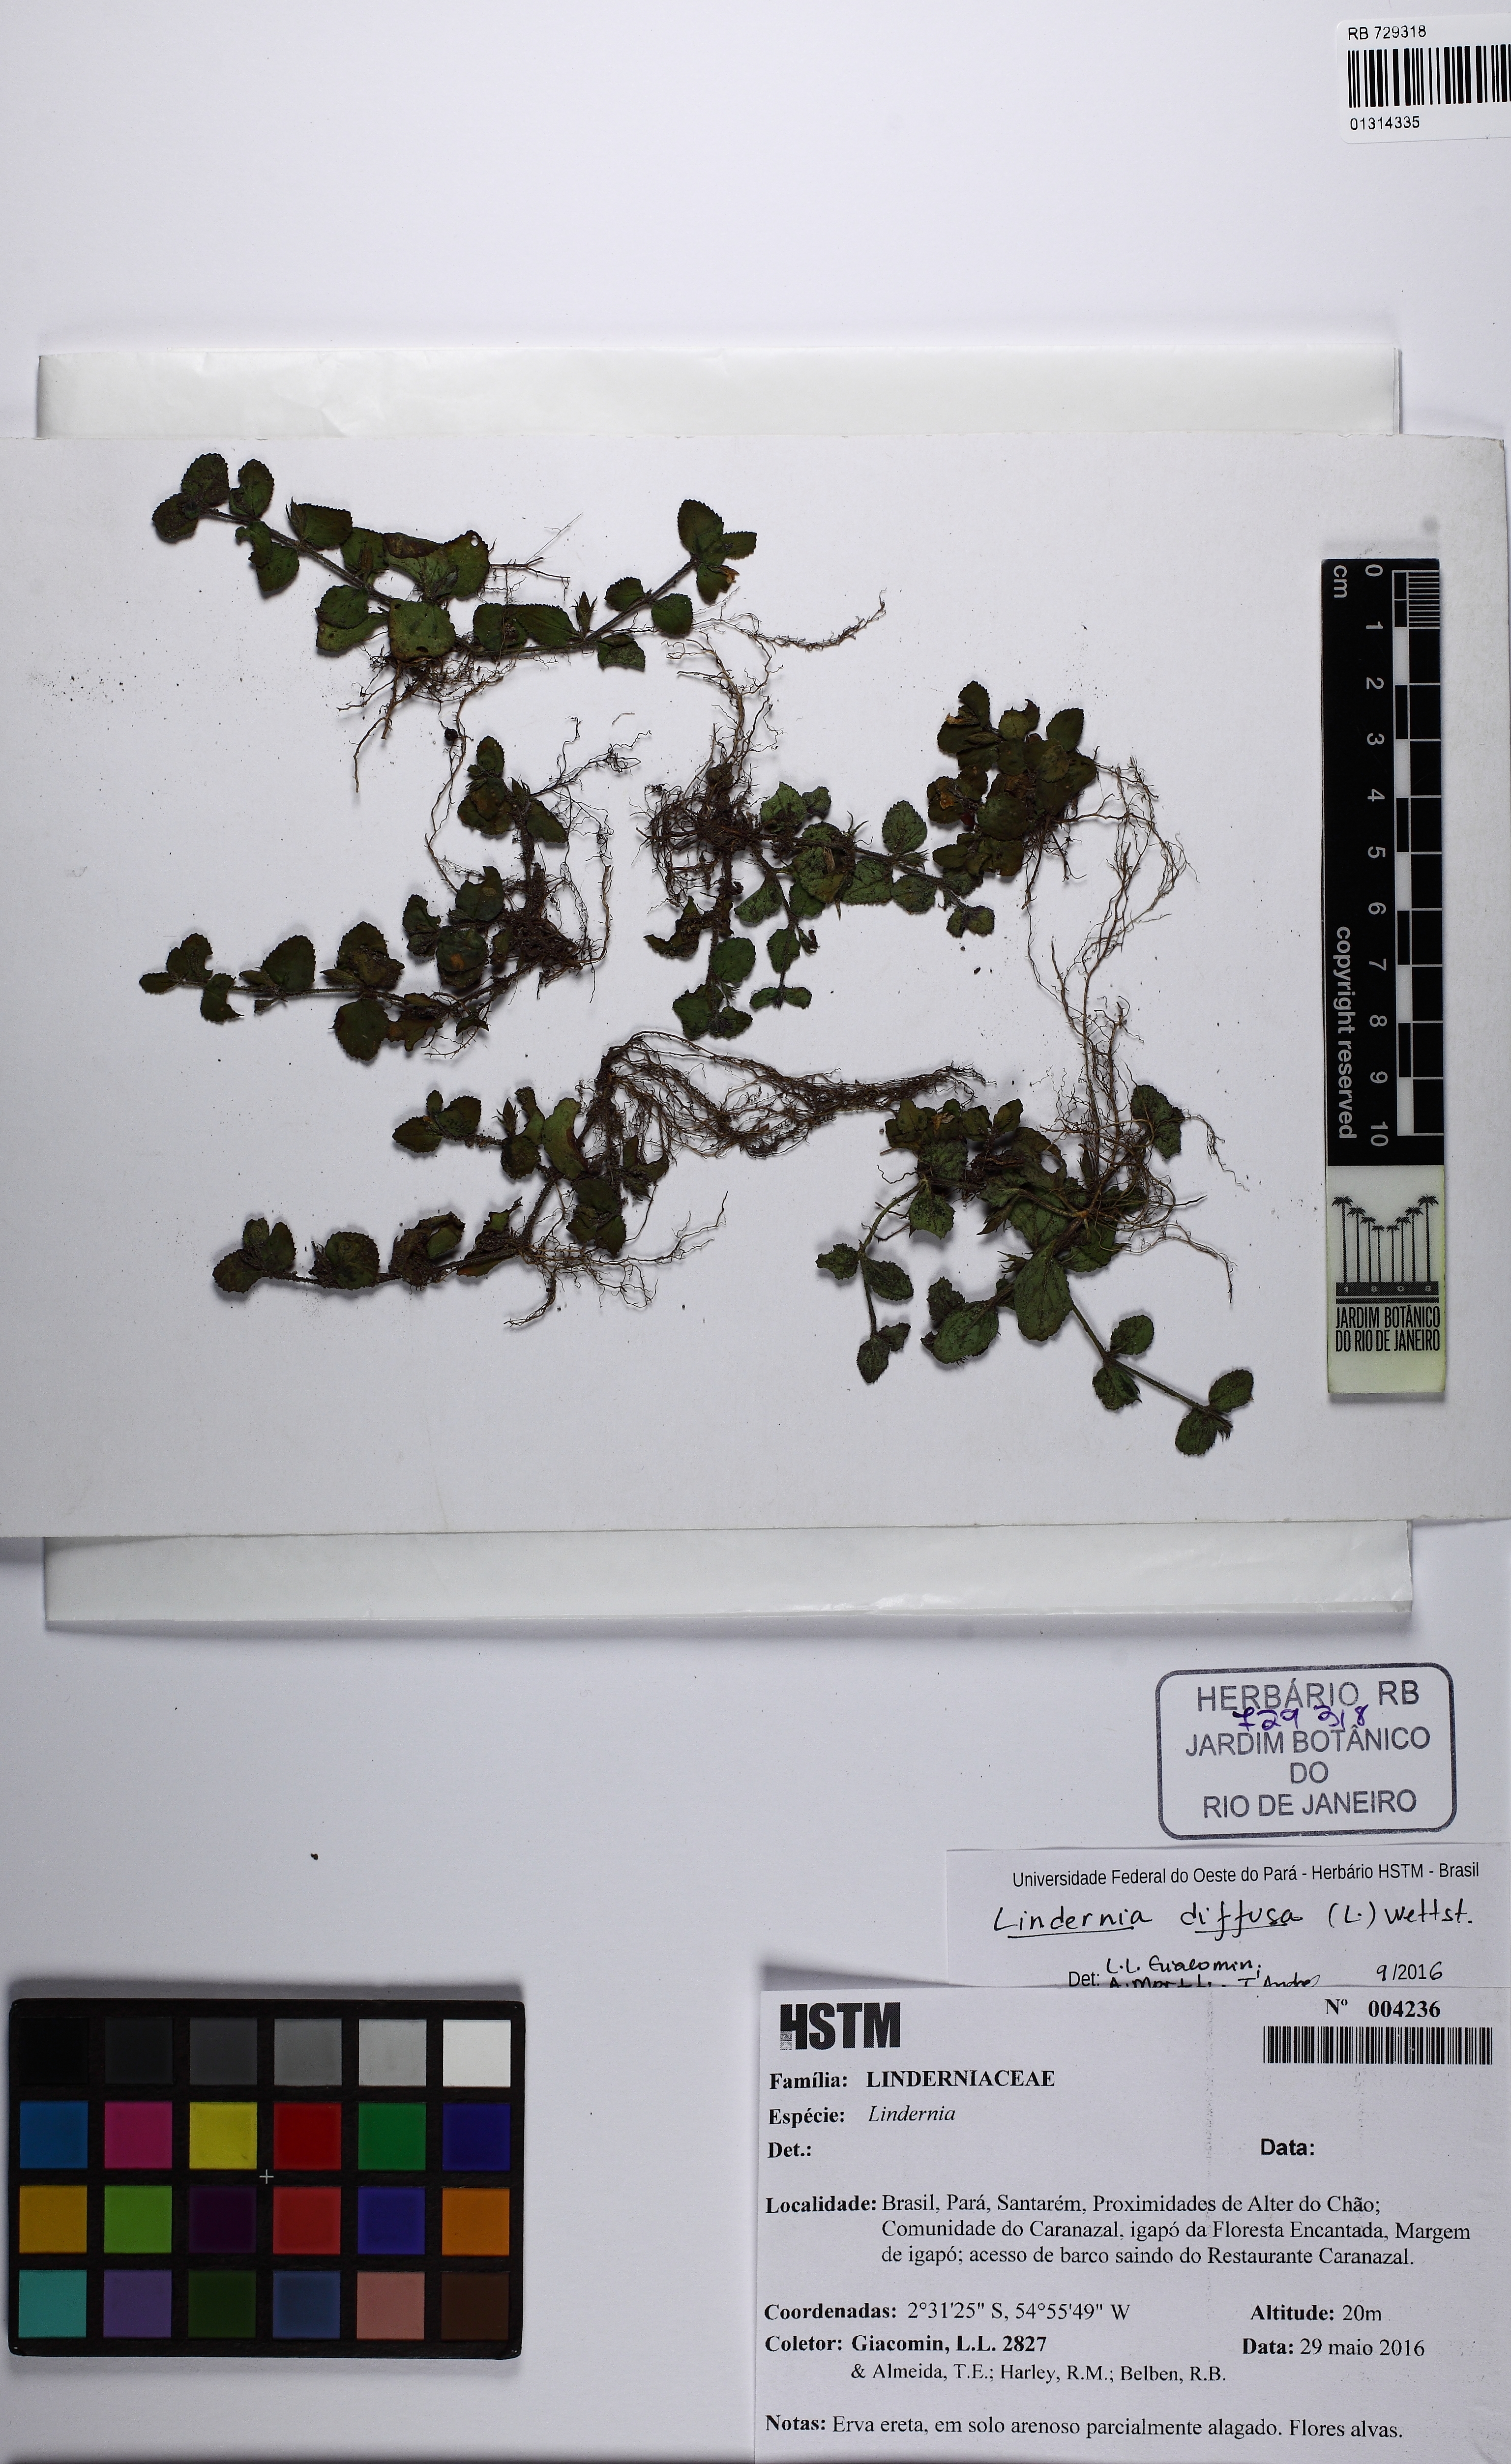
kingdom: Plantae
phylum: Tracheophyta
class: Magnoliopsida
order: Lamiales
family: Linderniaceae
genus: Vandellia
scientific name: Vandellia diffusa
